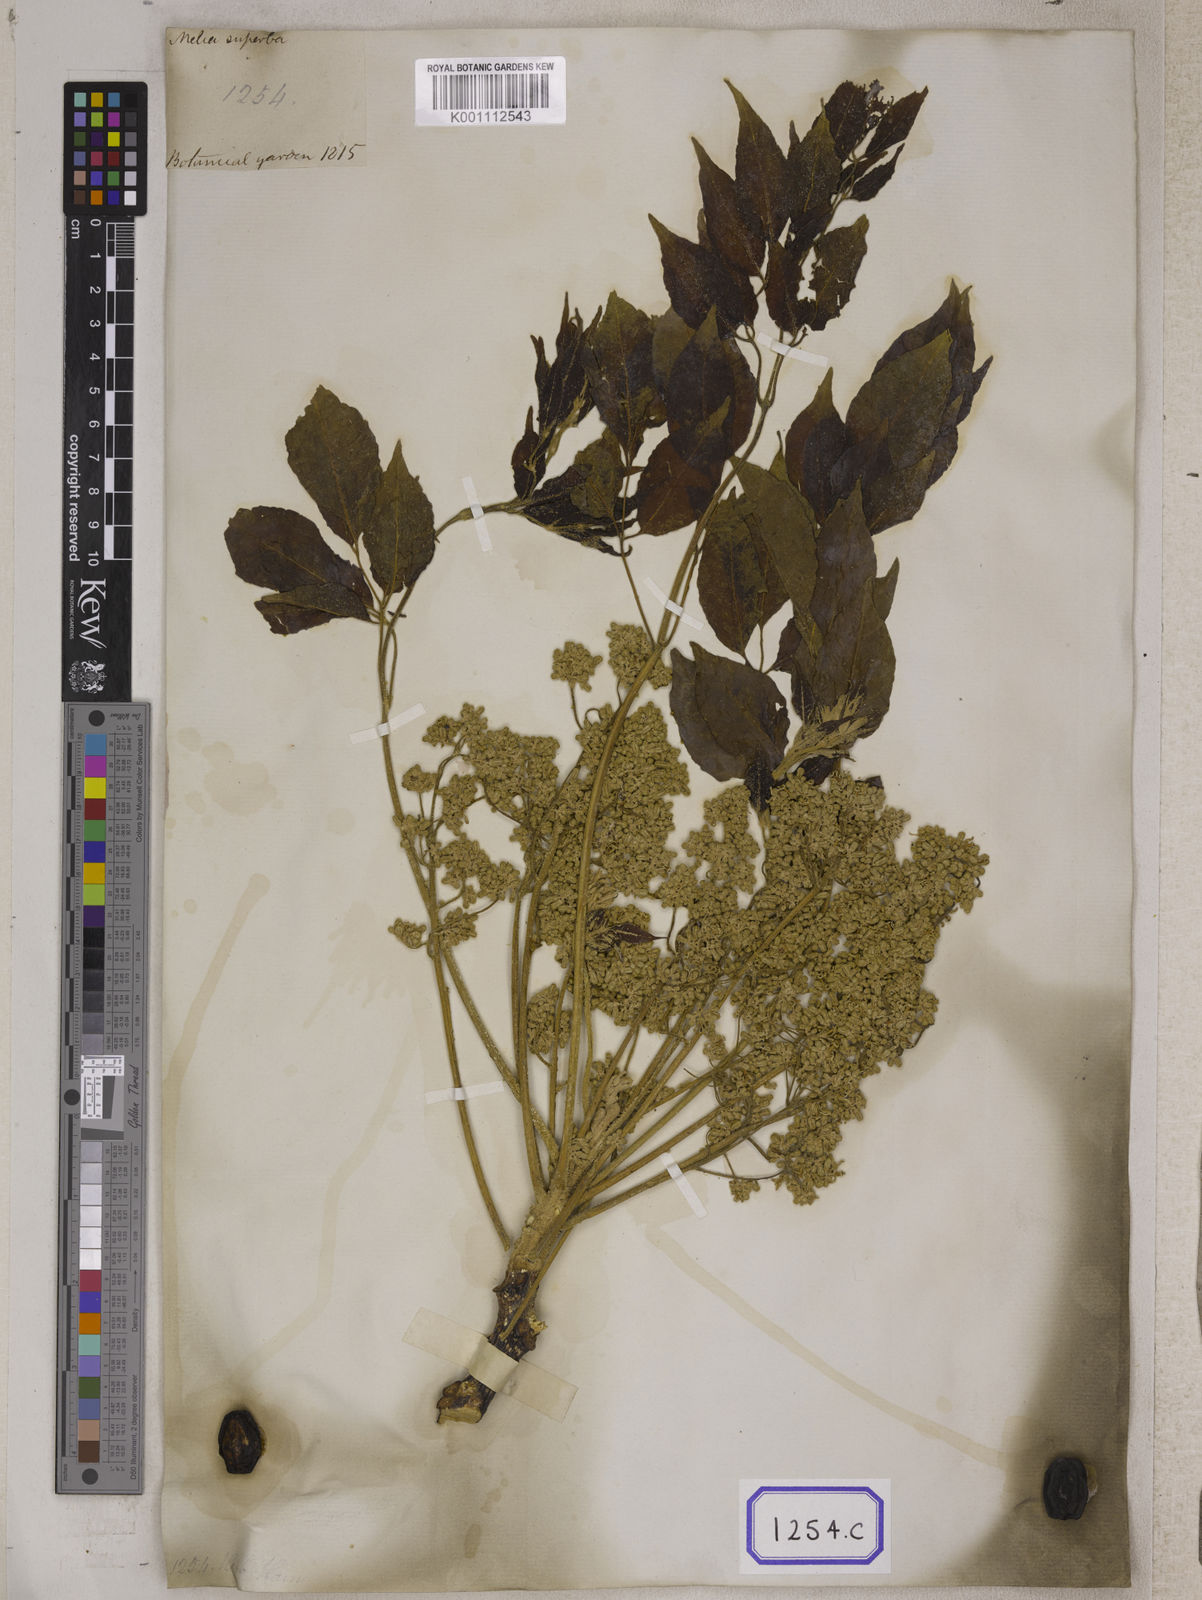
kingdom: Plantae
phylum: Tracheophyta
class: Magnoliopsida
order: Sapindales
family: Meliaceae
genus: Melia
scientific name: Melia azedarach
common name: Chinaberrytree
